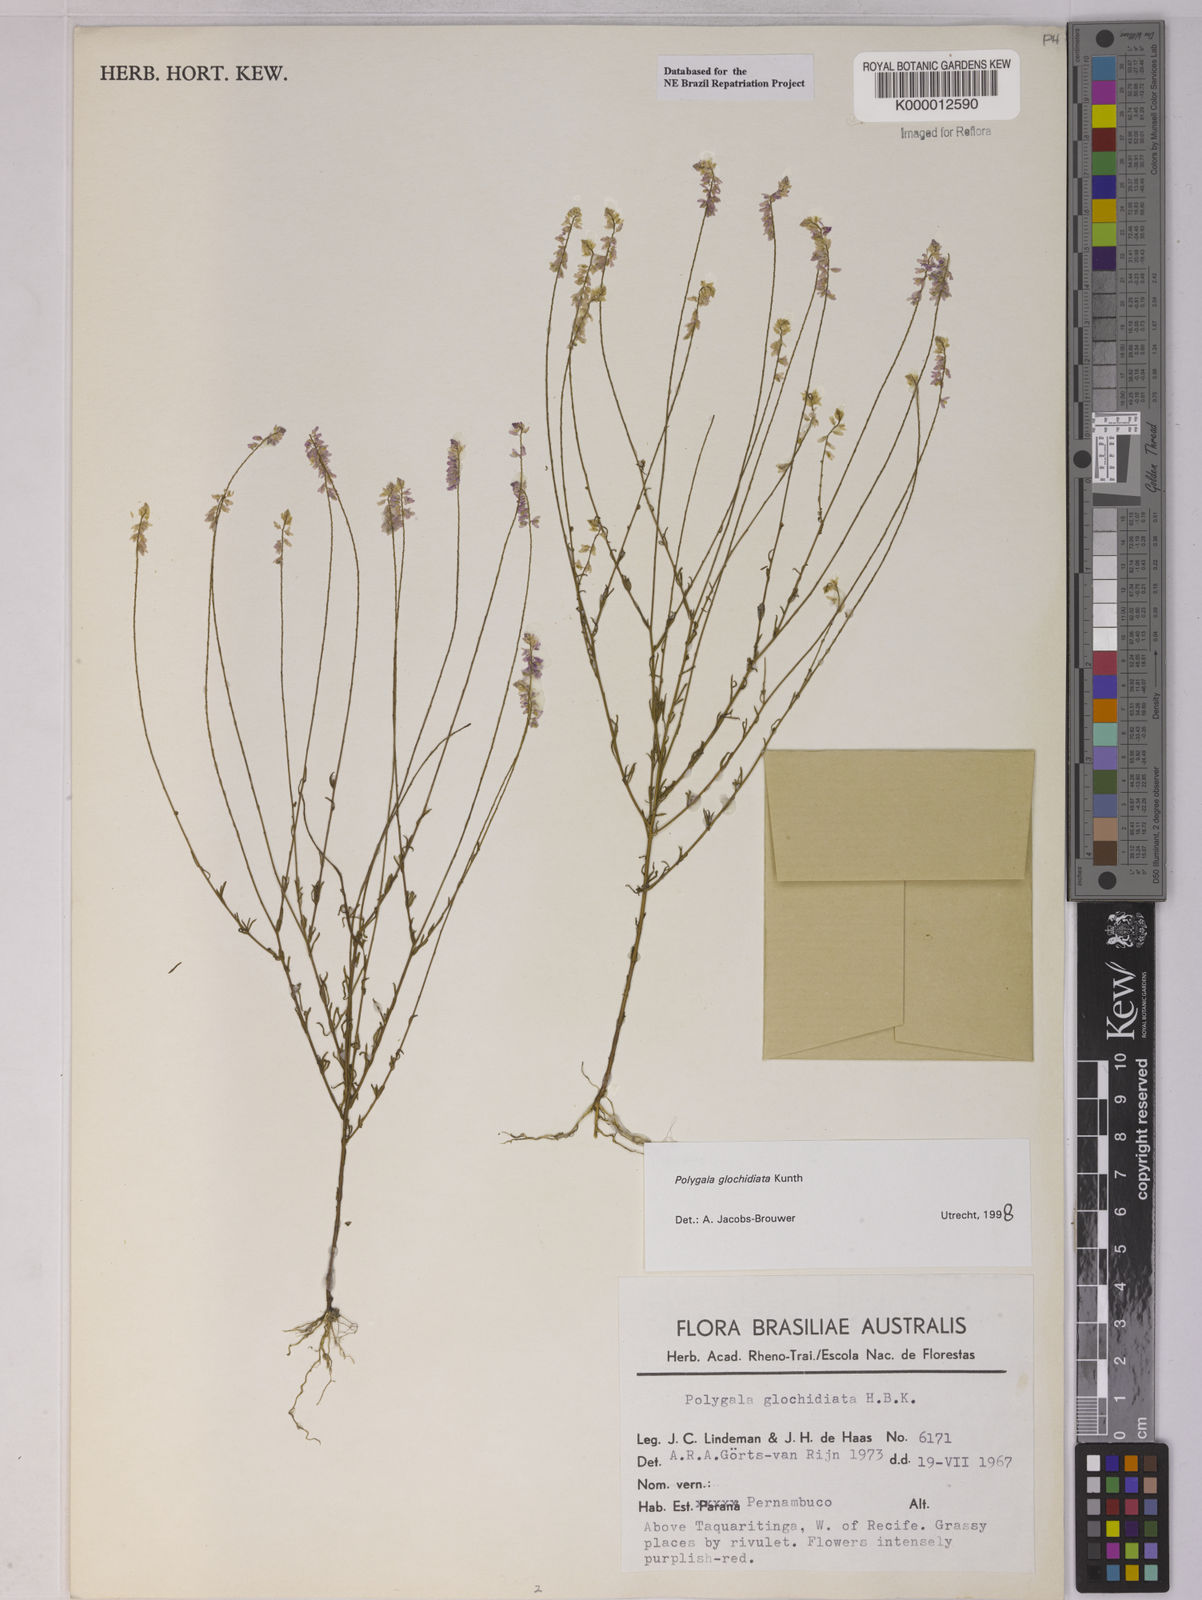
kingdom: Plantae
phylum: Tracheophyta
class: Magnoliopsida
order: Fabales
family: Polygalaceae
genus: Polygala
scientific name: Polygala glochidiata
